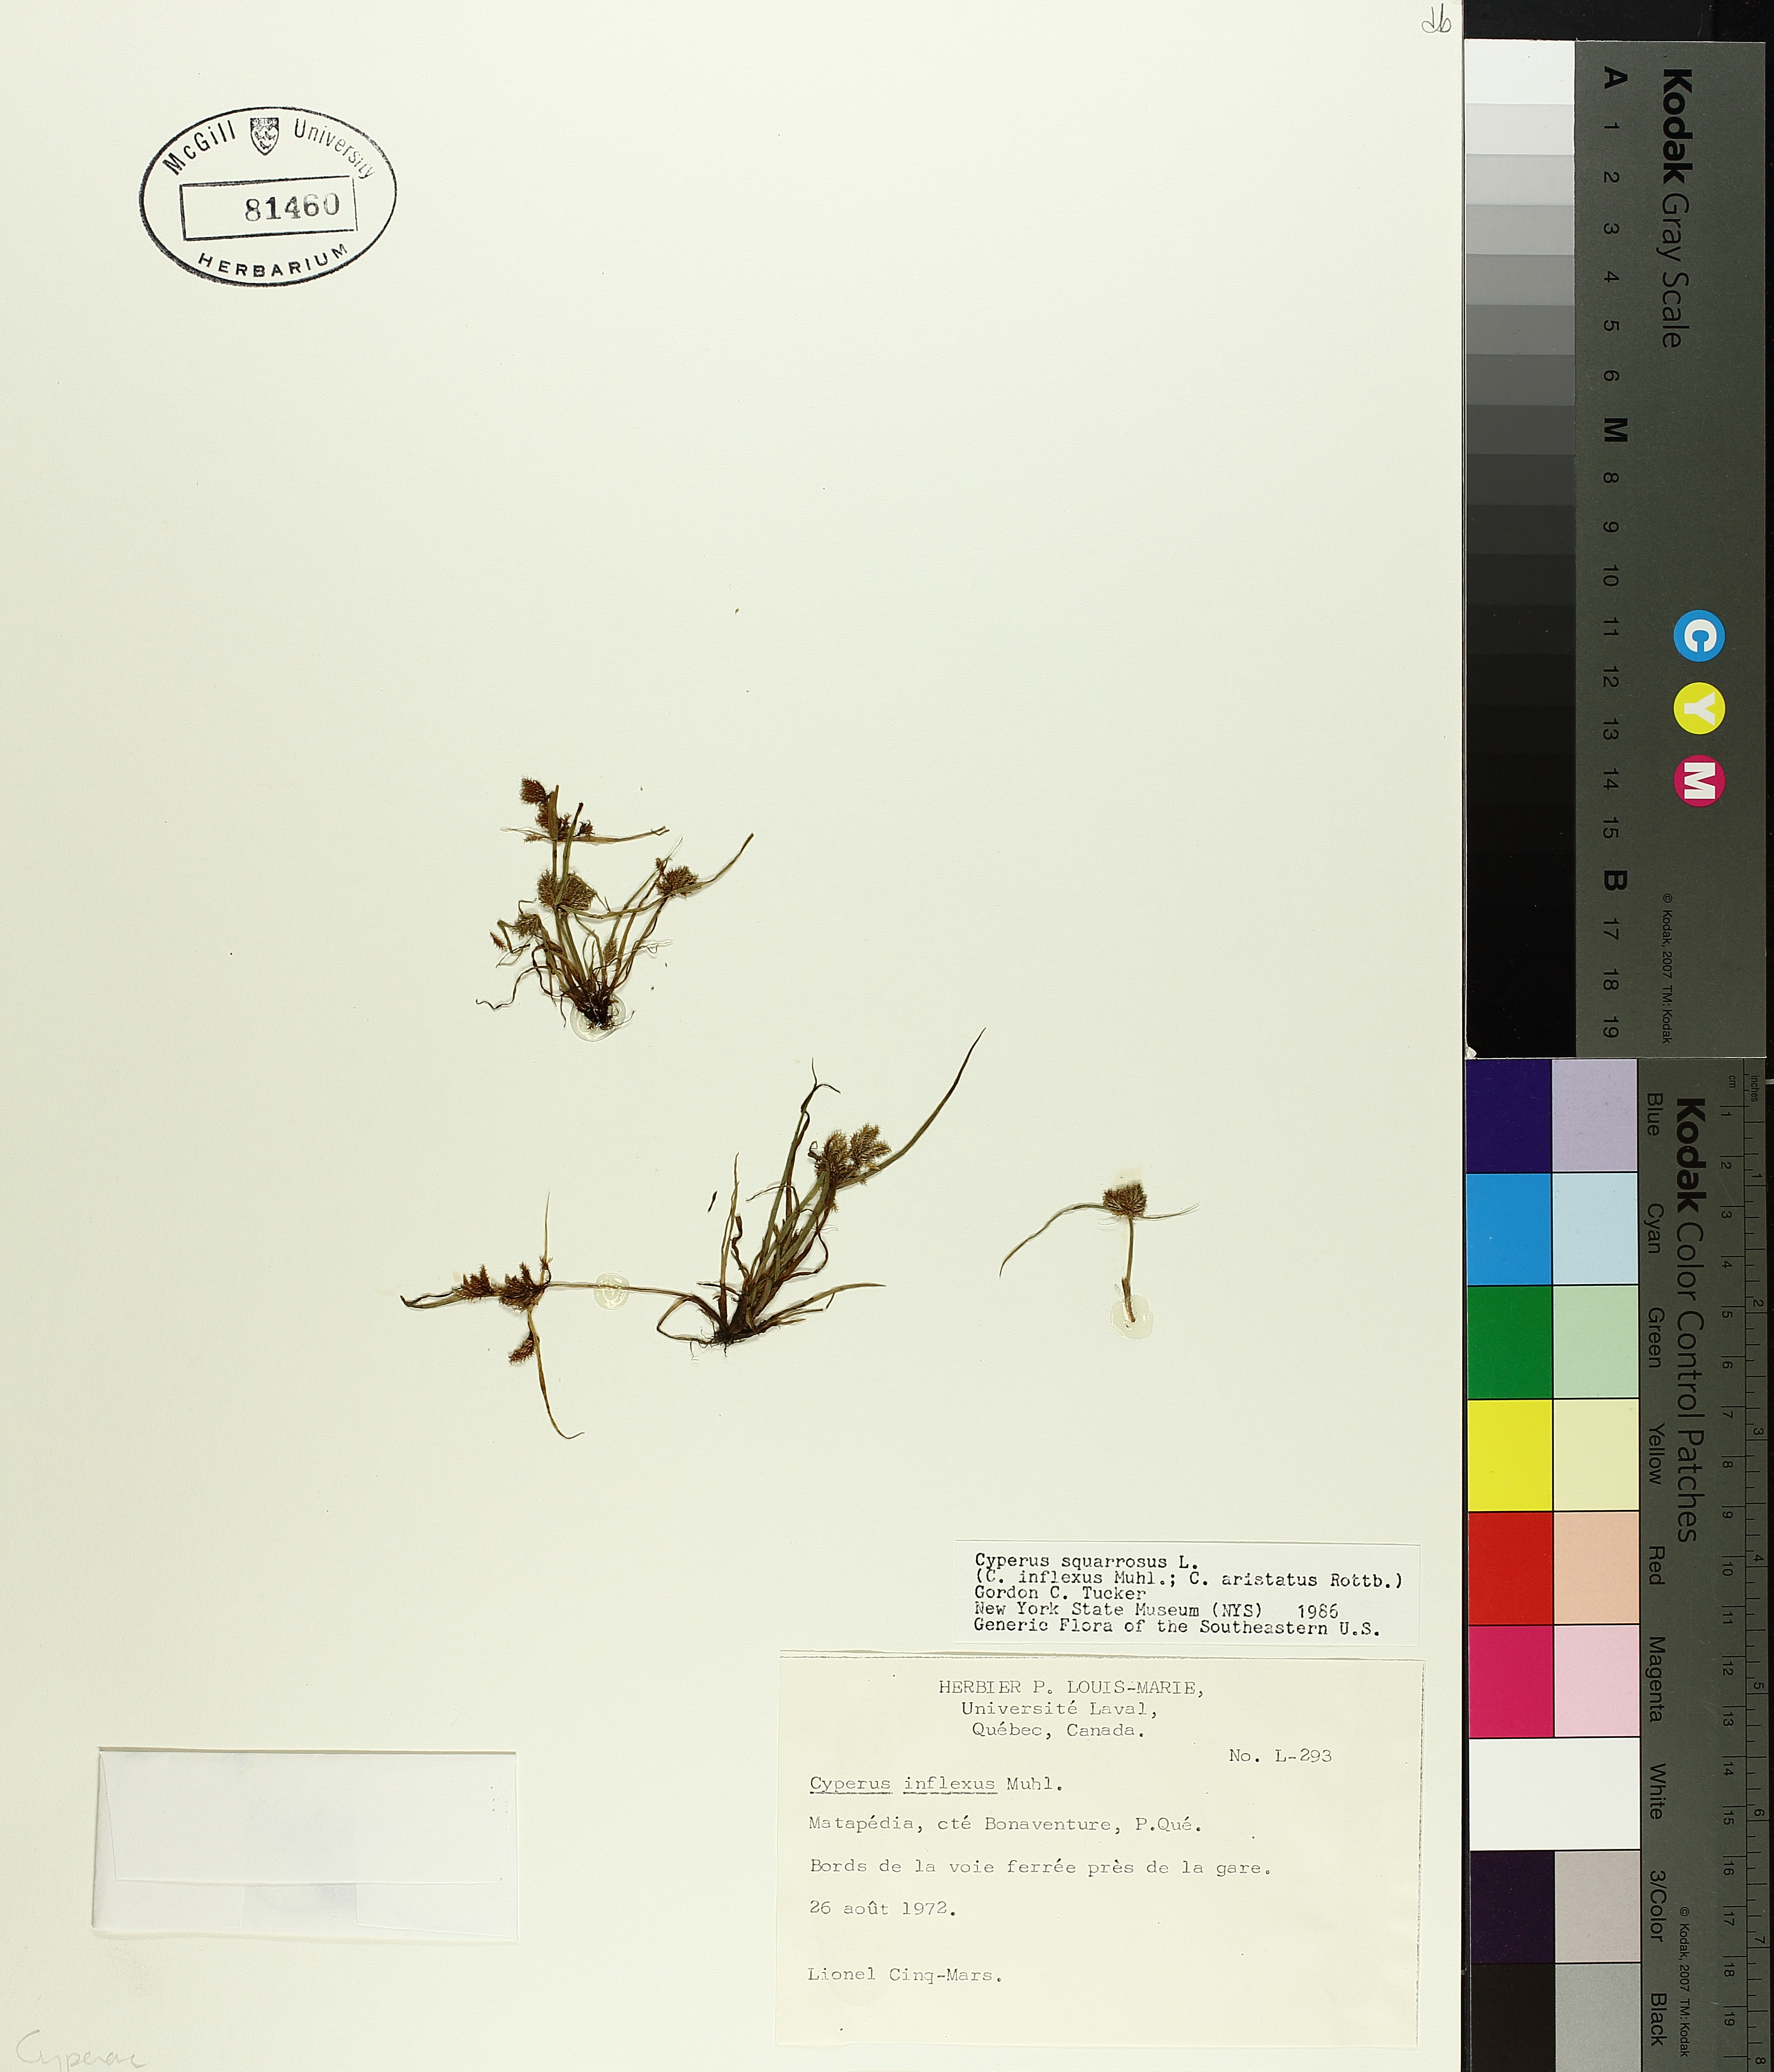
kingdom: Plantae
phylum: Tracheophyta
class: Liliopsida
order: Poales
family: Cyperaceae
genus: Cyperus
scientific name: Cyperus squarrosus
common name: Awned cyperus
